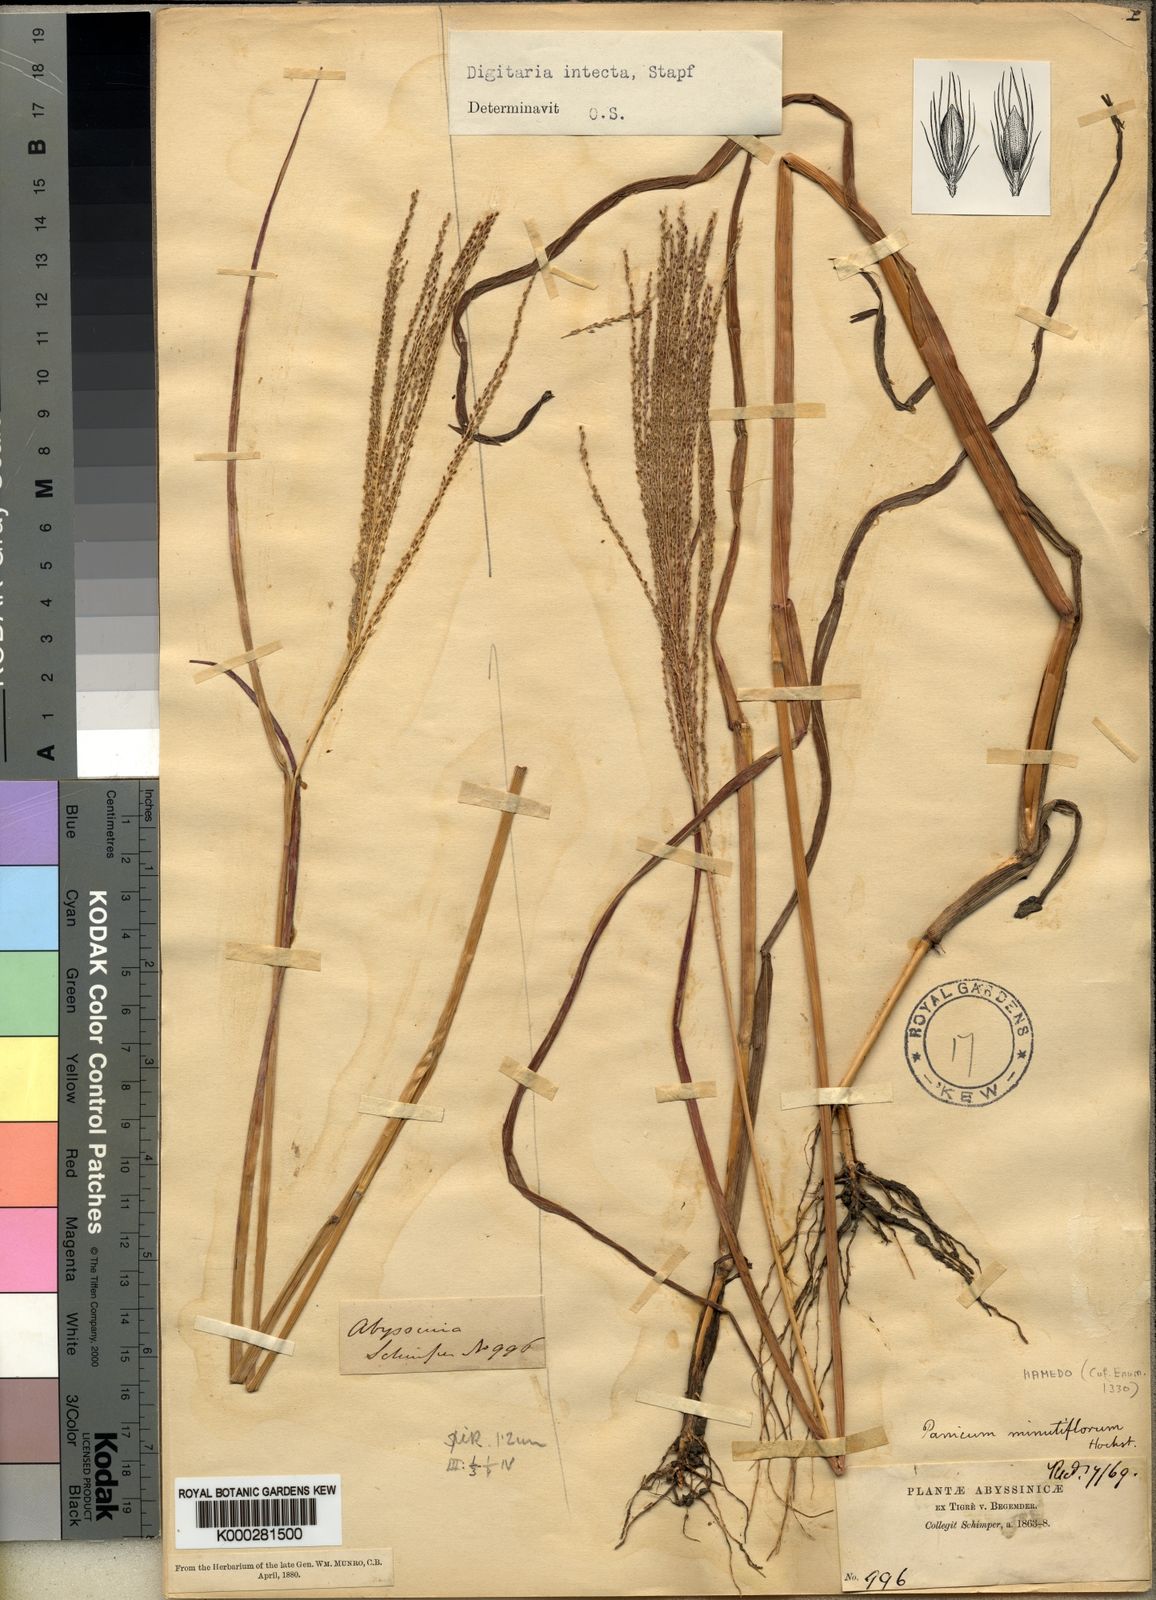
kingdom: Plantae
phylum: Tracheophyta
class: Liliopsida
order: Poales
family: Poaceae
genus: Digitaria
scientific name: Digitaria intecta
